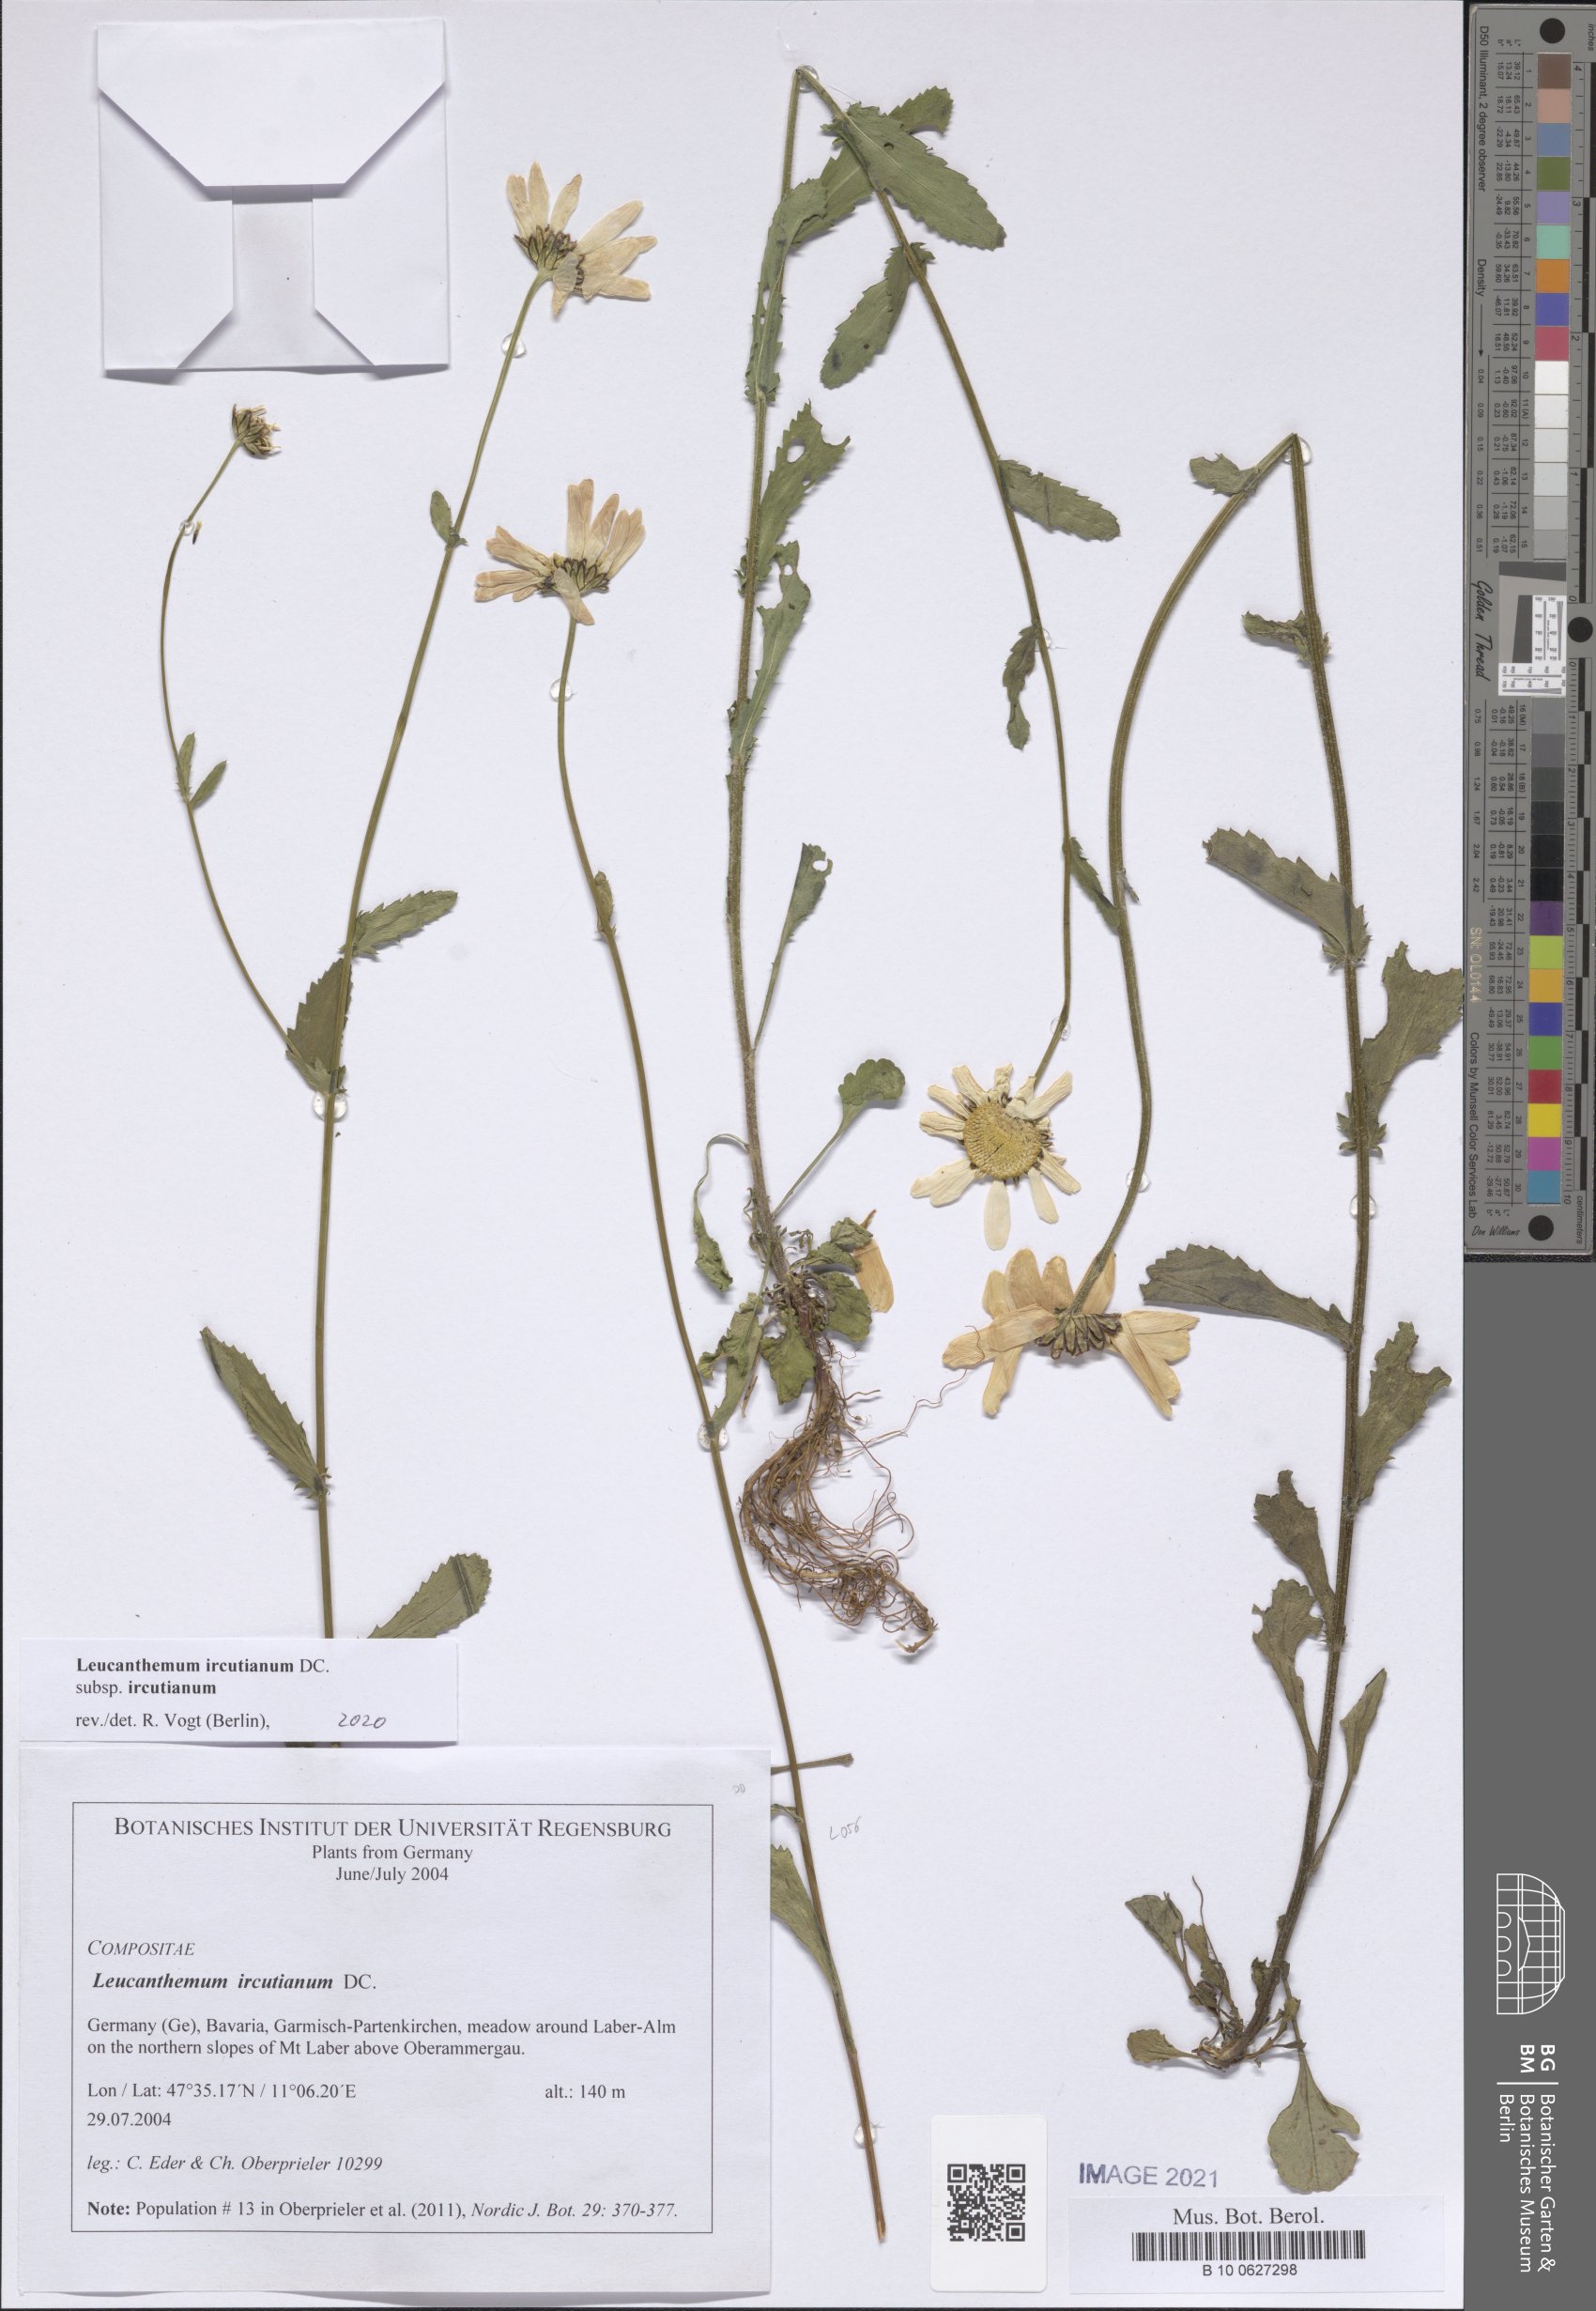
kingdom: Plantae
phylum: Tracheophyta
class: Magnoliopsida
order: Asterales
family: Asteraceae
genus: Leucanthemum
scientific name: Leucanthemum ircutianum
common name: Daisy
